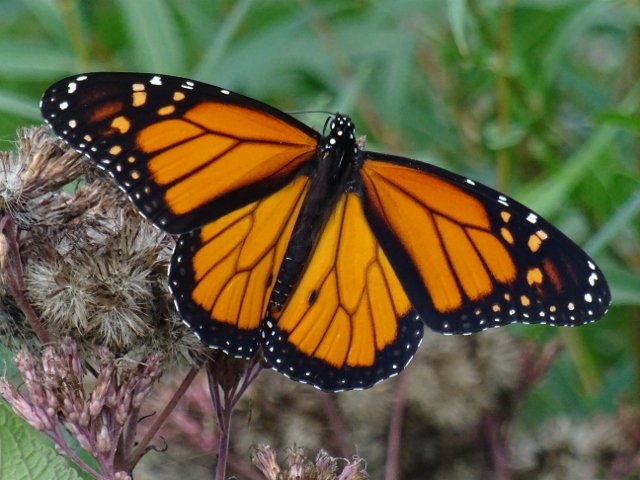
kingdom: Animalia
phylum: Arthropoda
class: Insecta
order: Lepidoptera
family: Nymphalidae
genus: Danaus
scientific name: Danaus plexippus
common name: Monarch
